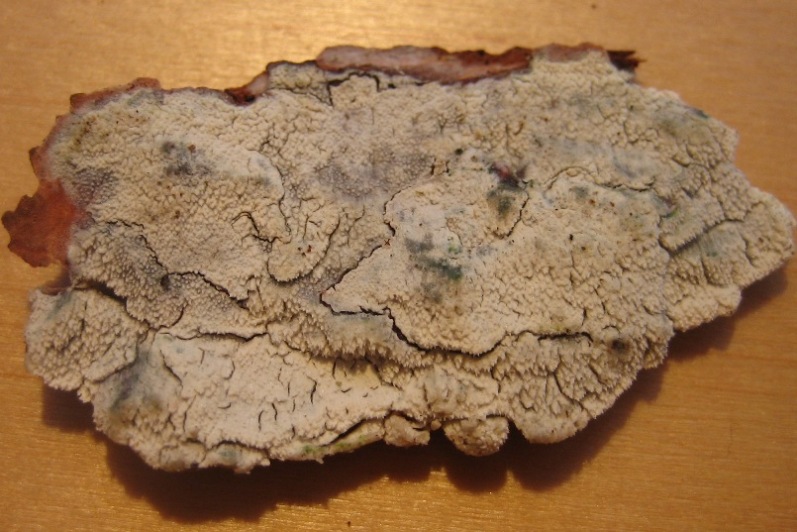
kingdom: Fungi
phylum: Basidiomycota
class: Agaricomycetes
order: Hymenochaetales
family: Rickenellaceae
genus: Resinicium
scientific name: Resinicium bicolor
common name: almindelig vokstand
